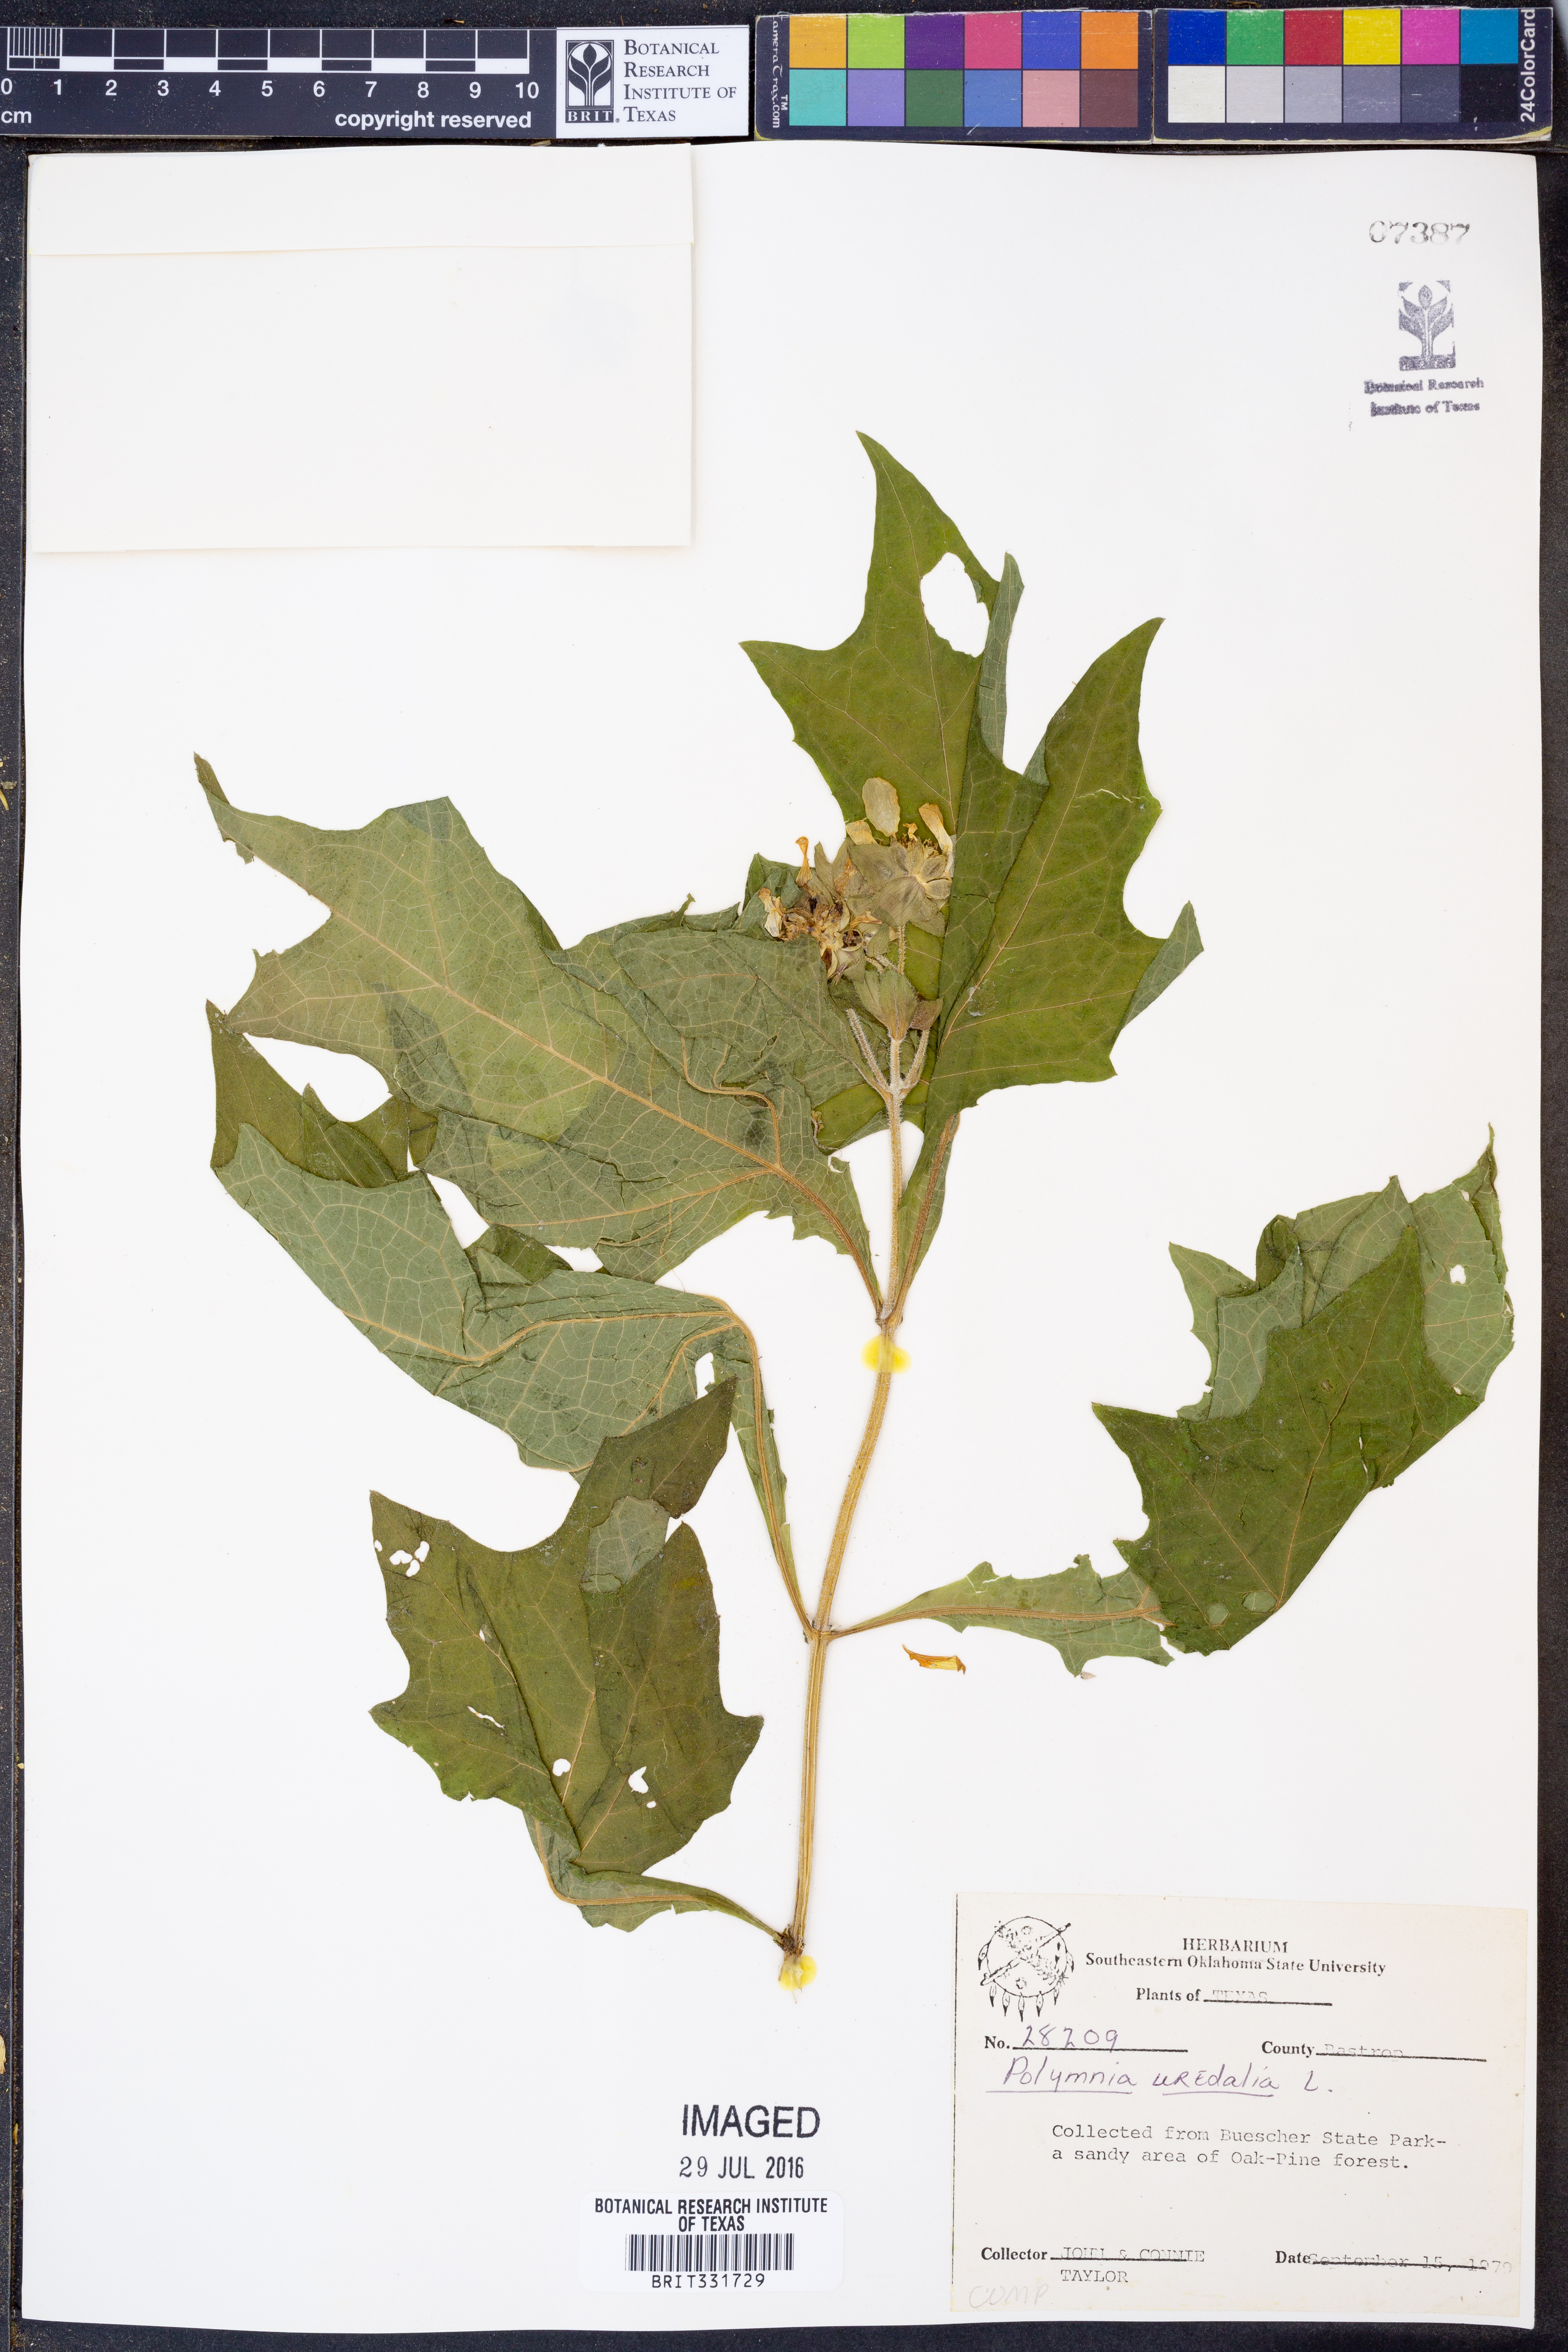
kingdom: Plantae
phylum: Tracheophyta
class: Magnoliopsida
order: Asterales
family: Asteraceae
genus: Smallanthus
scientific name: Smallanthus uvedalia
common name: Bear's-foot
